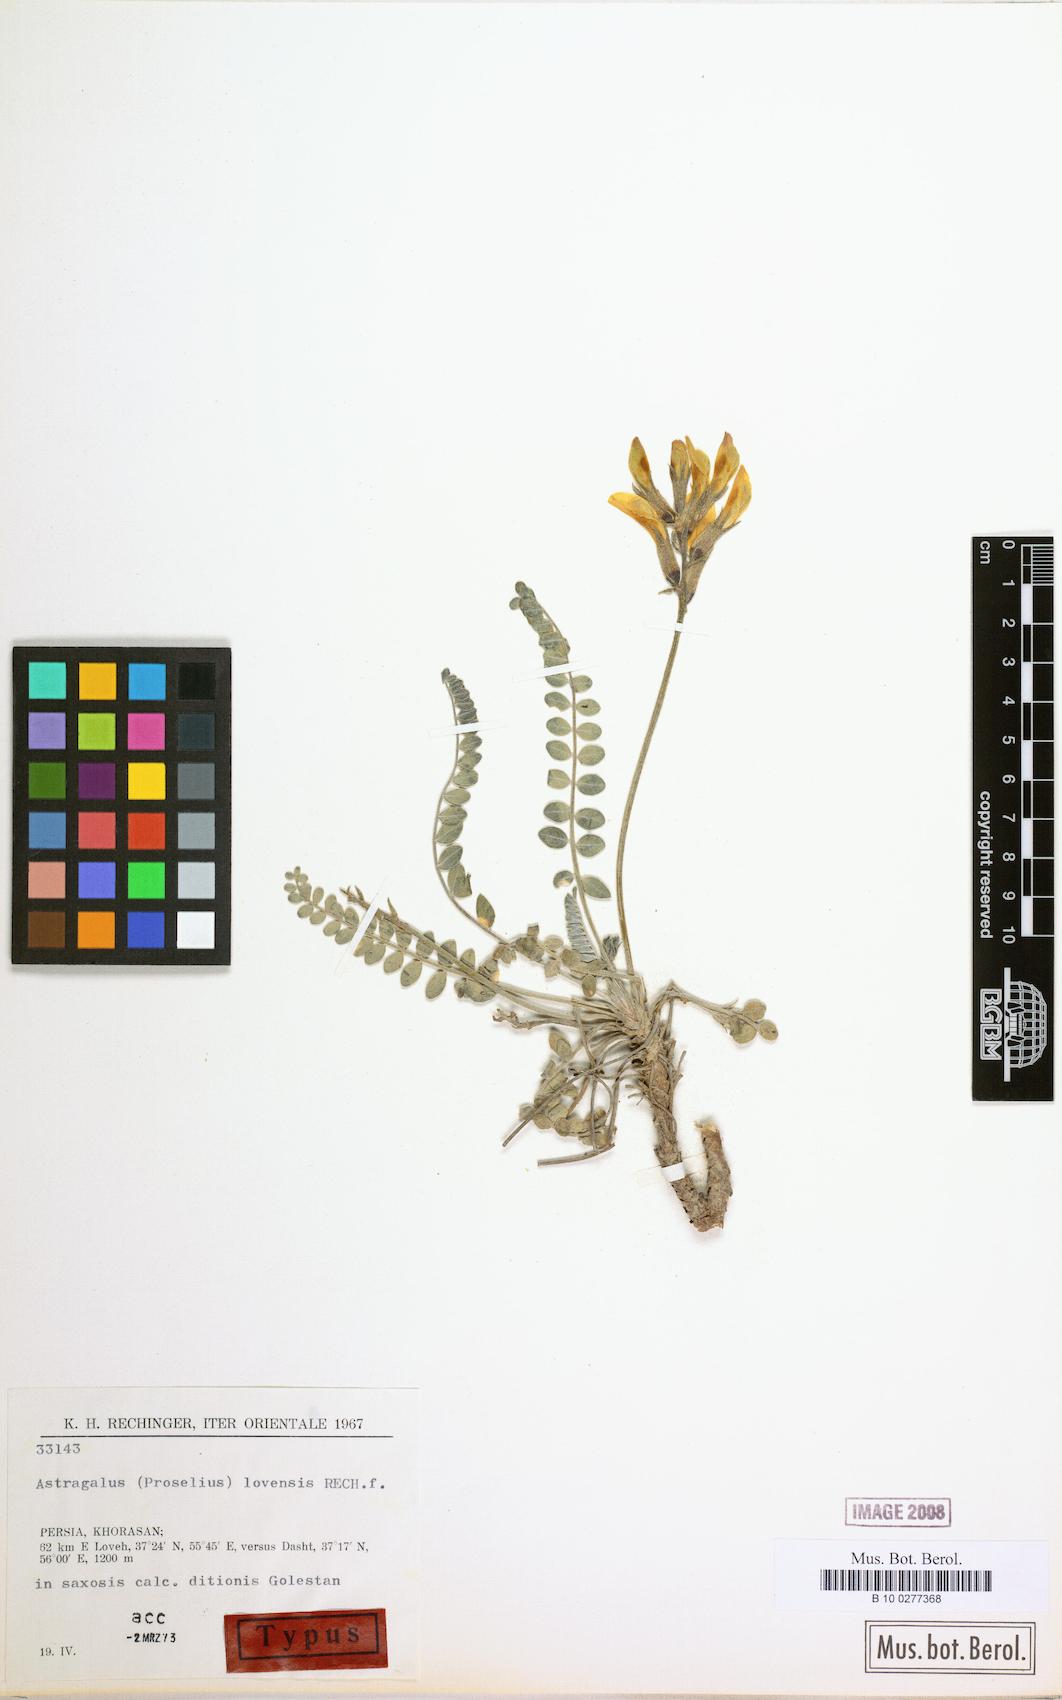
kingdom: Plantae
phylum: Tracheophyta
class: Magnoliopsida
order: Fabales
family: Fabaceae
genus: Astragalus
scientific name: Astragalus submaculatus
